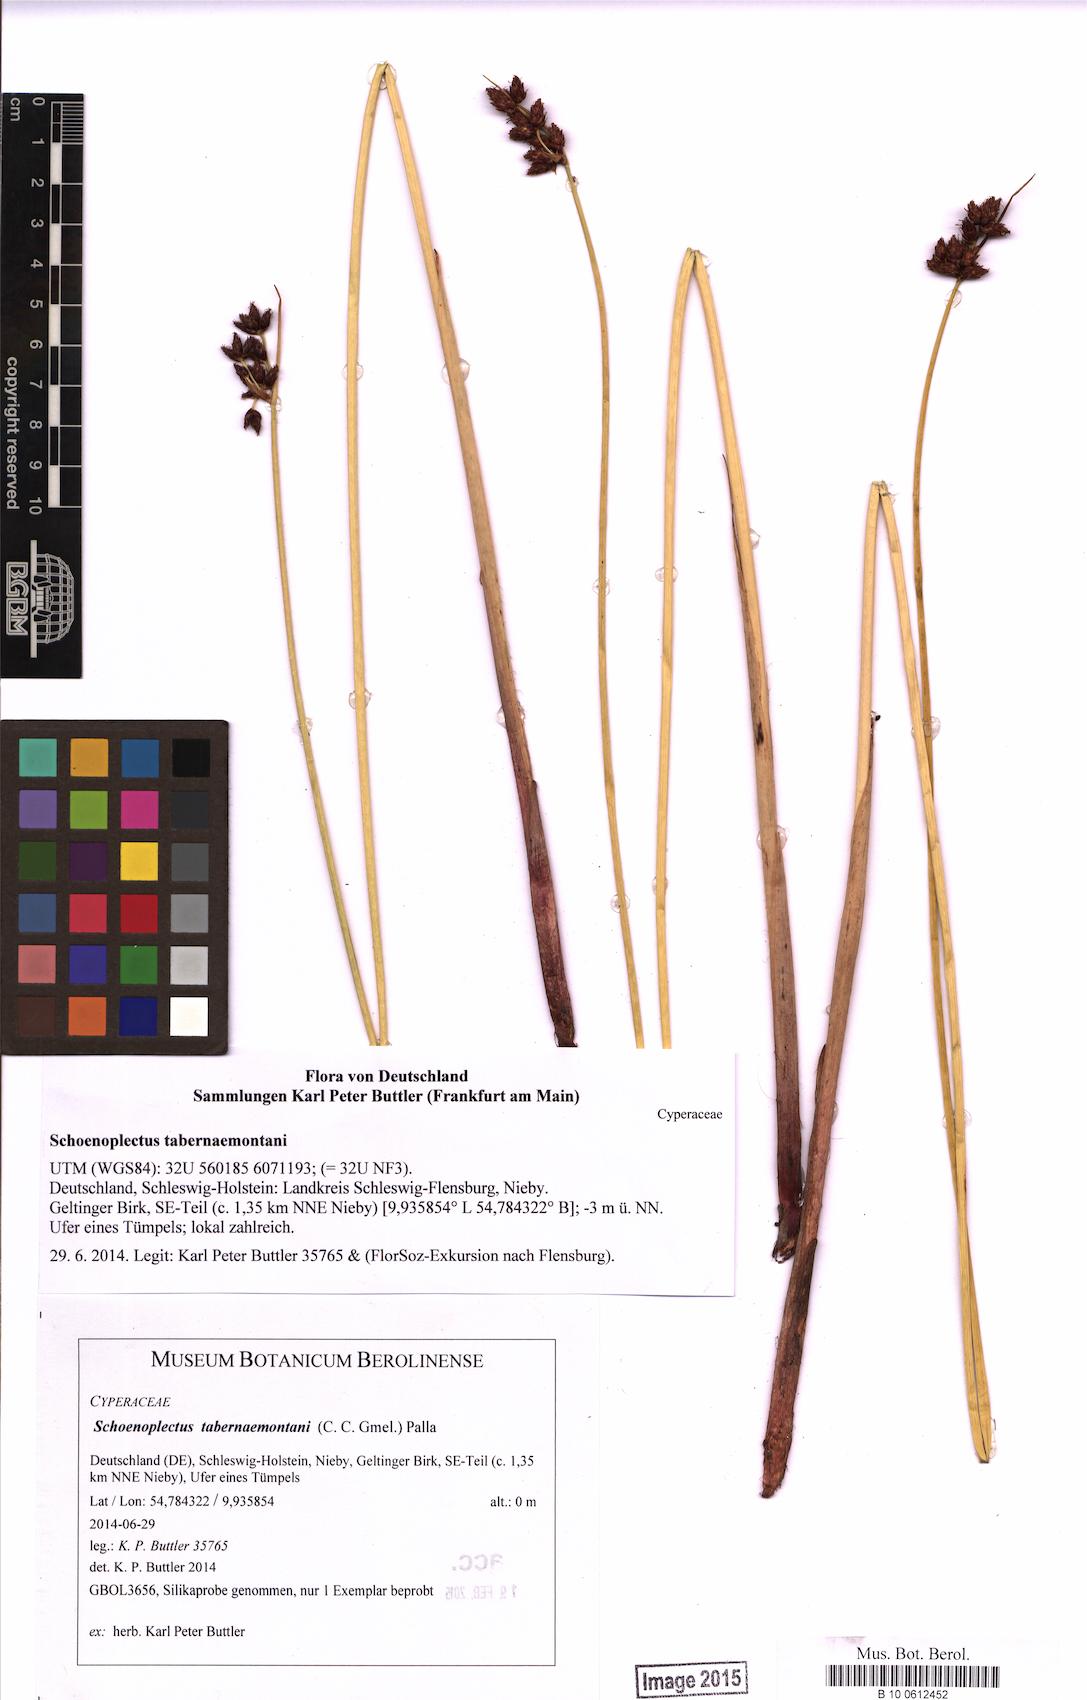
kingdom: Plantae
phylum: Tracheophyta
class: Liliopsida
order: Poales
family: Cyperaceae
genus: Schoenoplectus
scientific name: Schoenoplectus tabernaemontani
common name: Grey club-rush
